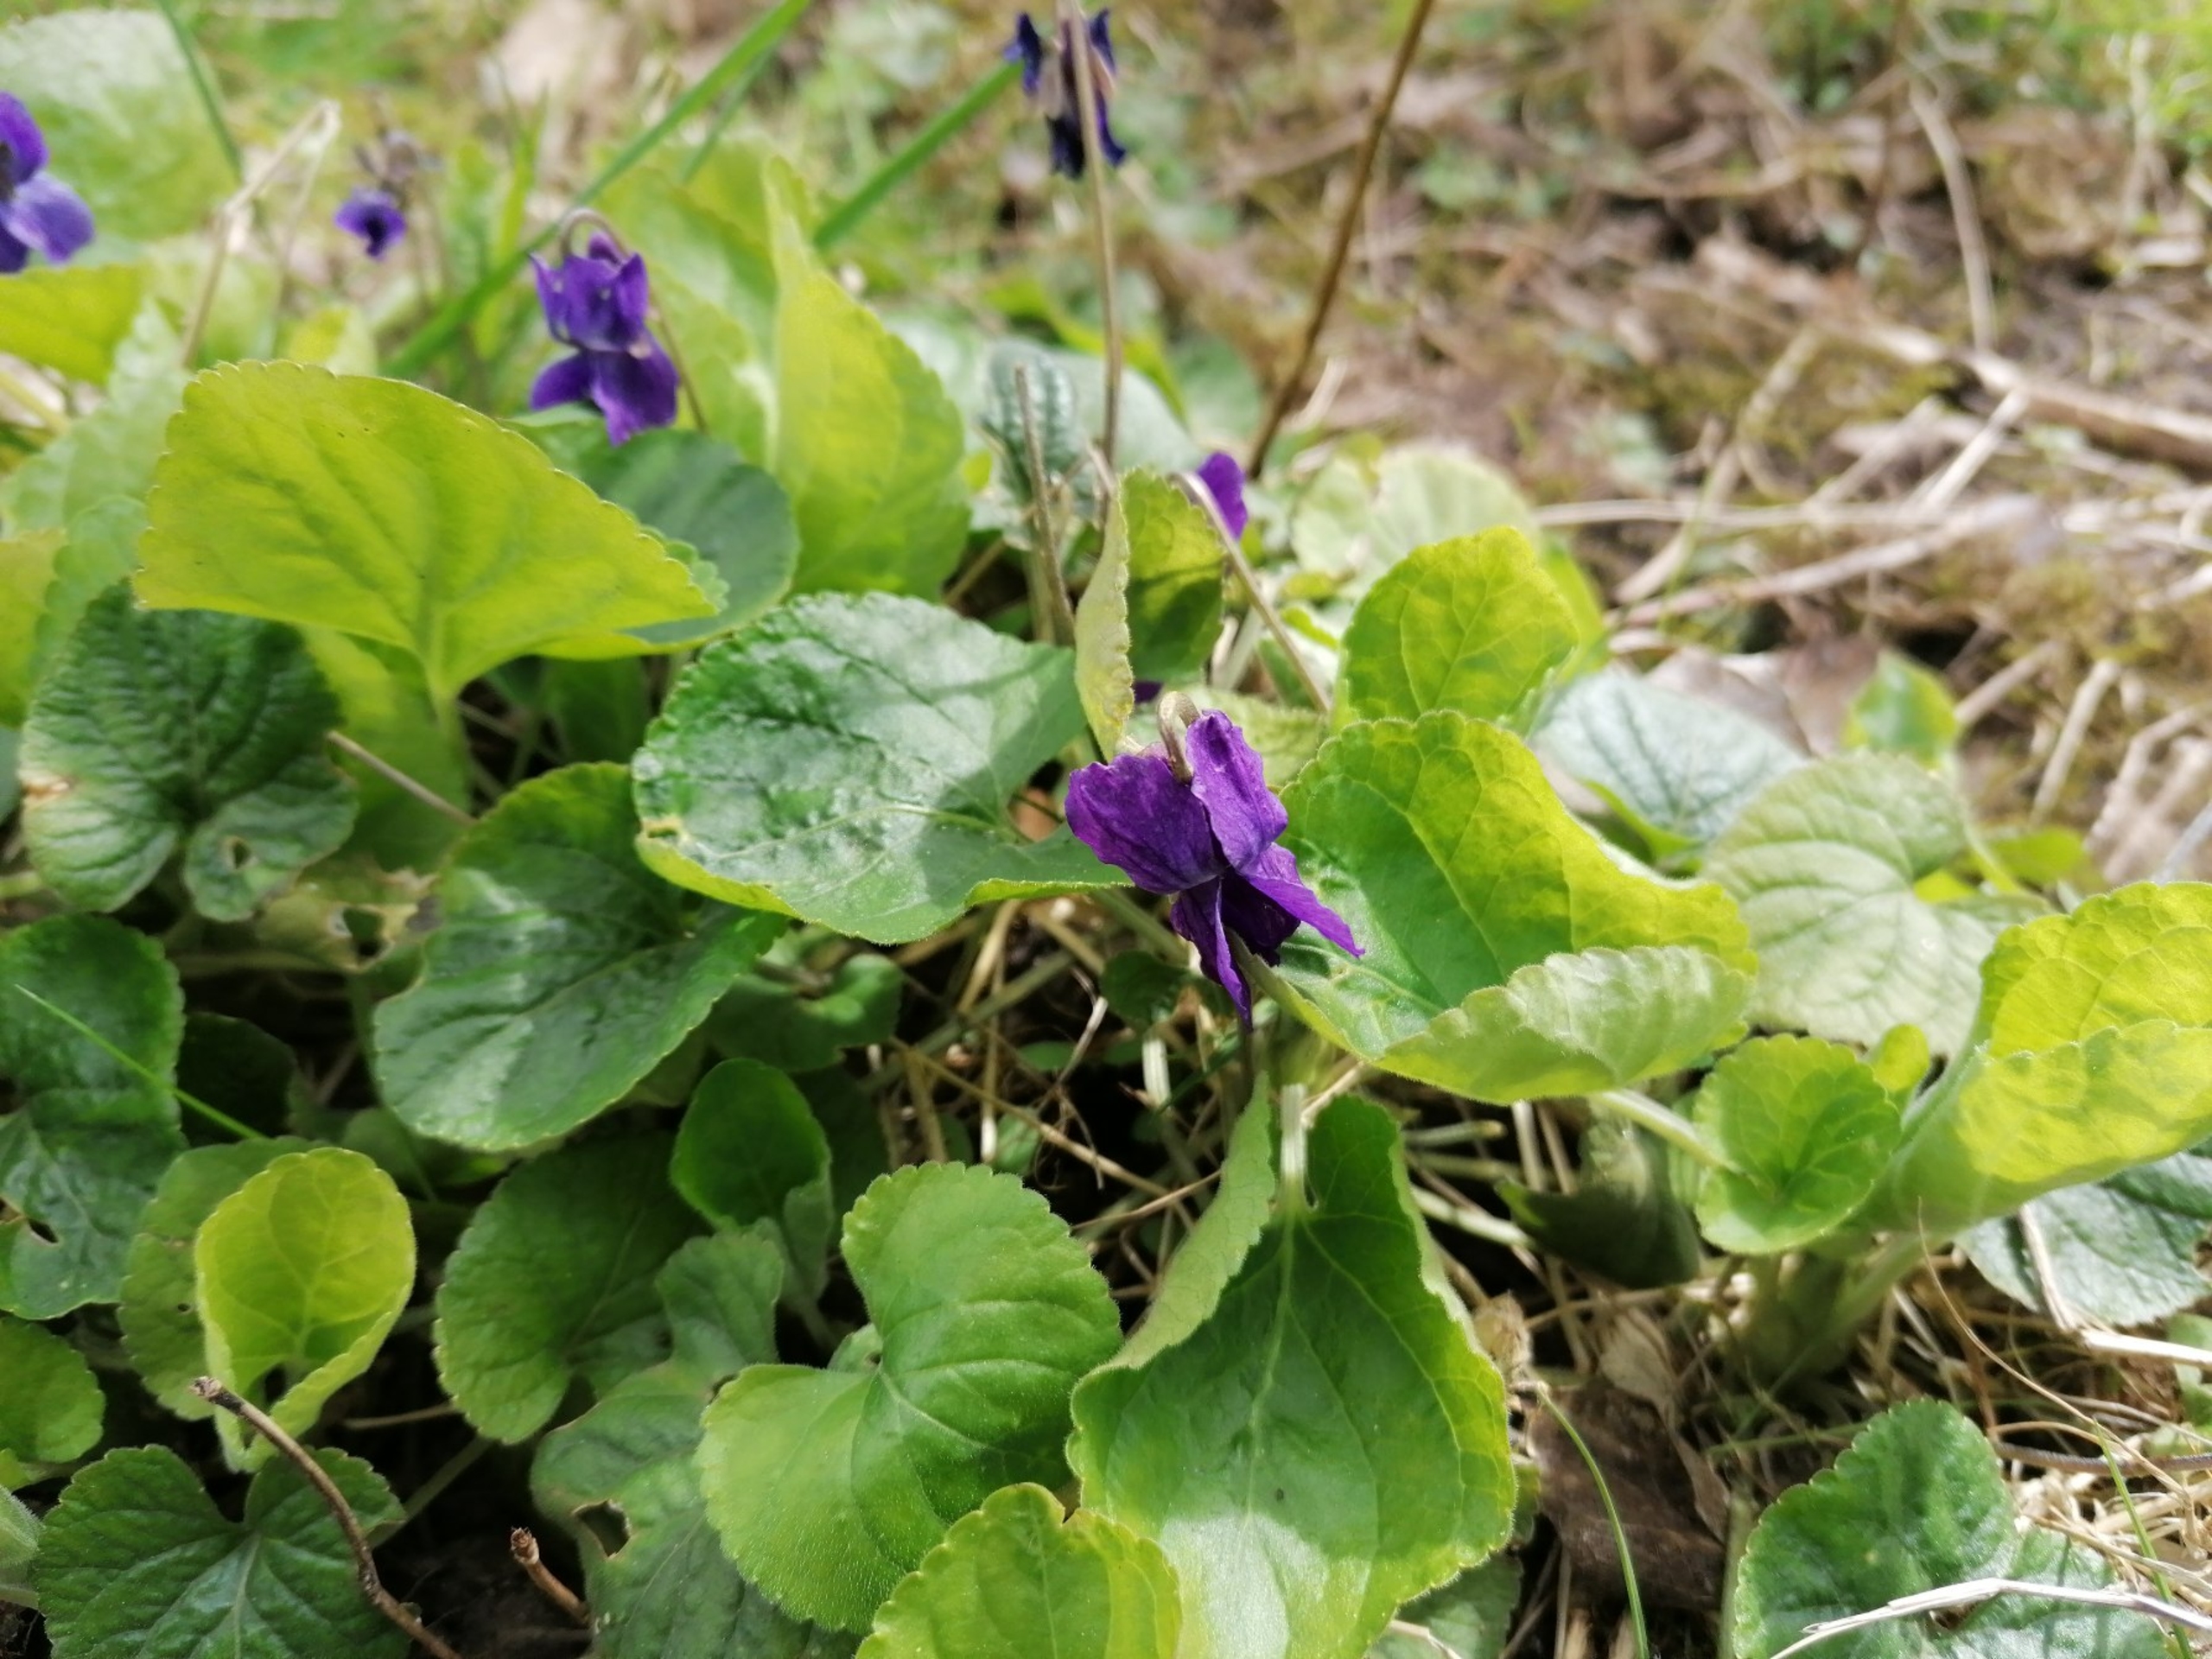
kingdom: Plantae
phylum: Tracheophyta
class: Magnoliopsida
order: Malpighiales
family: Violaceae
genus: Viola
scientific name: Viola odorata
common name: Marts-viol
